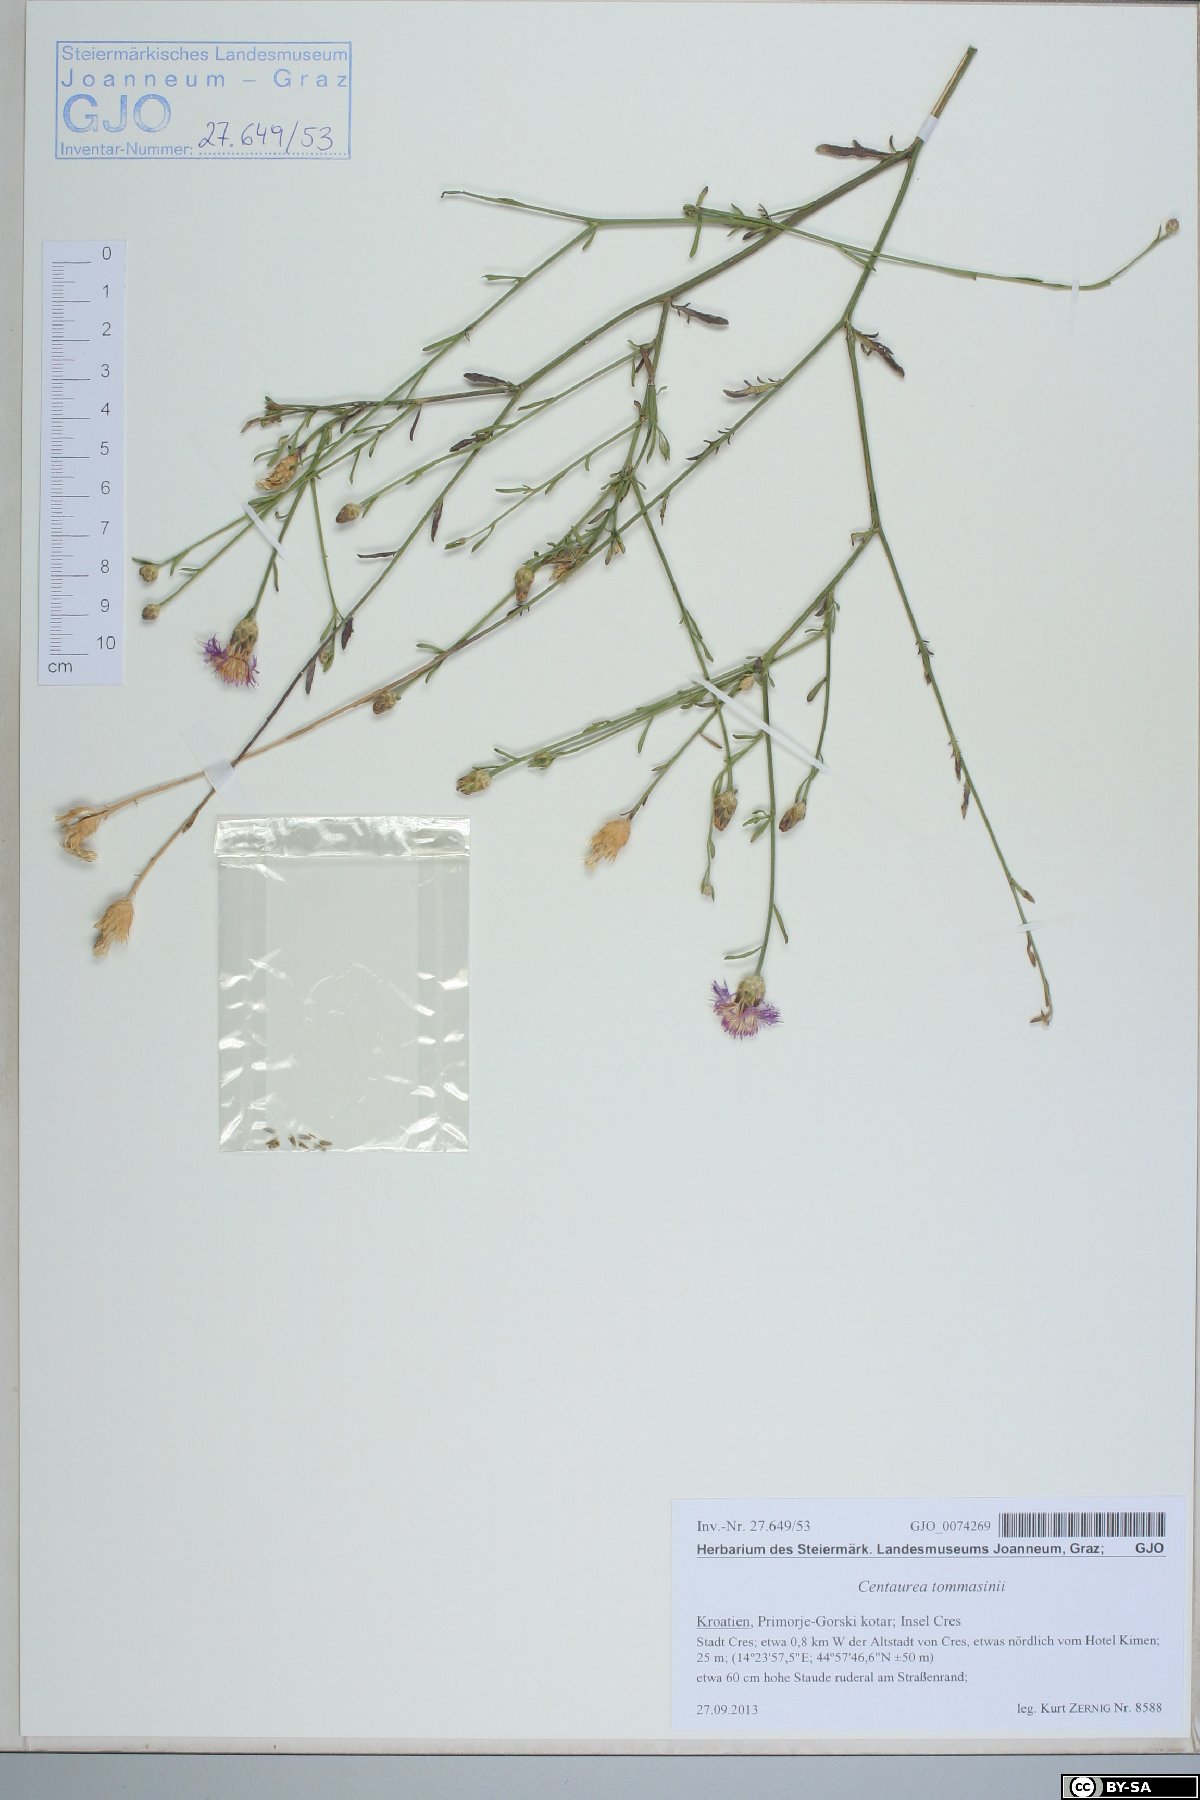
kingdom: Plantae
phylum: Tracheophyta
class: Magnoliopsida
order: Asterales
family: Asteraceae
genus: Centaurea
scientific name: Centaurea tommasinii
